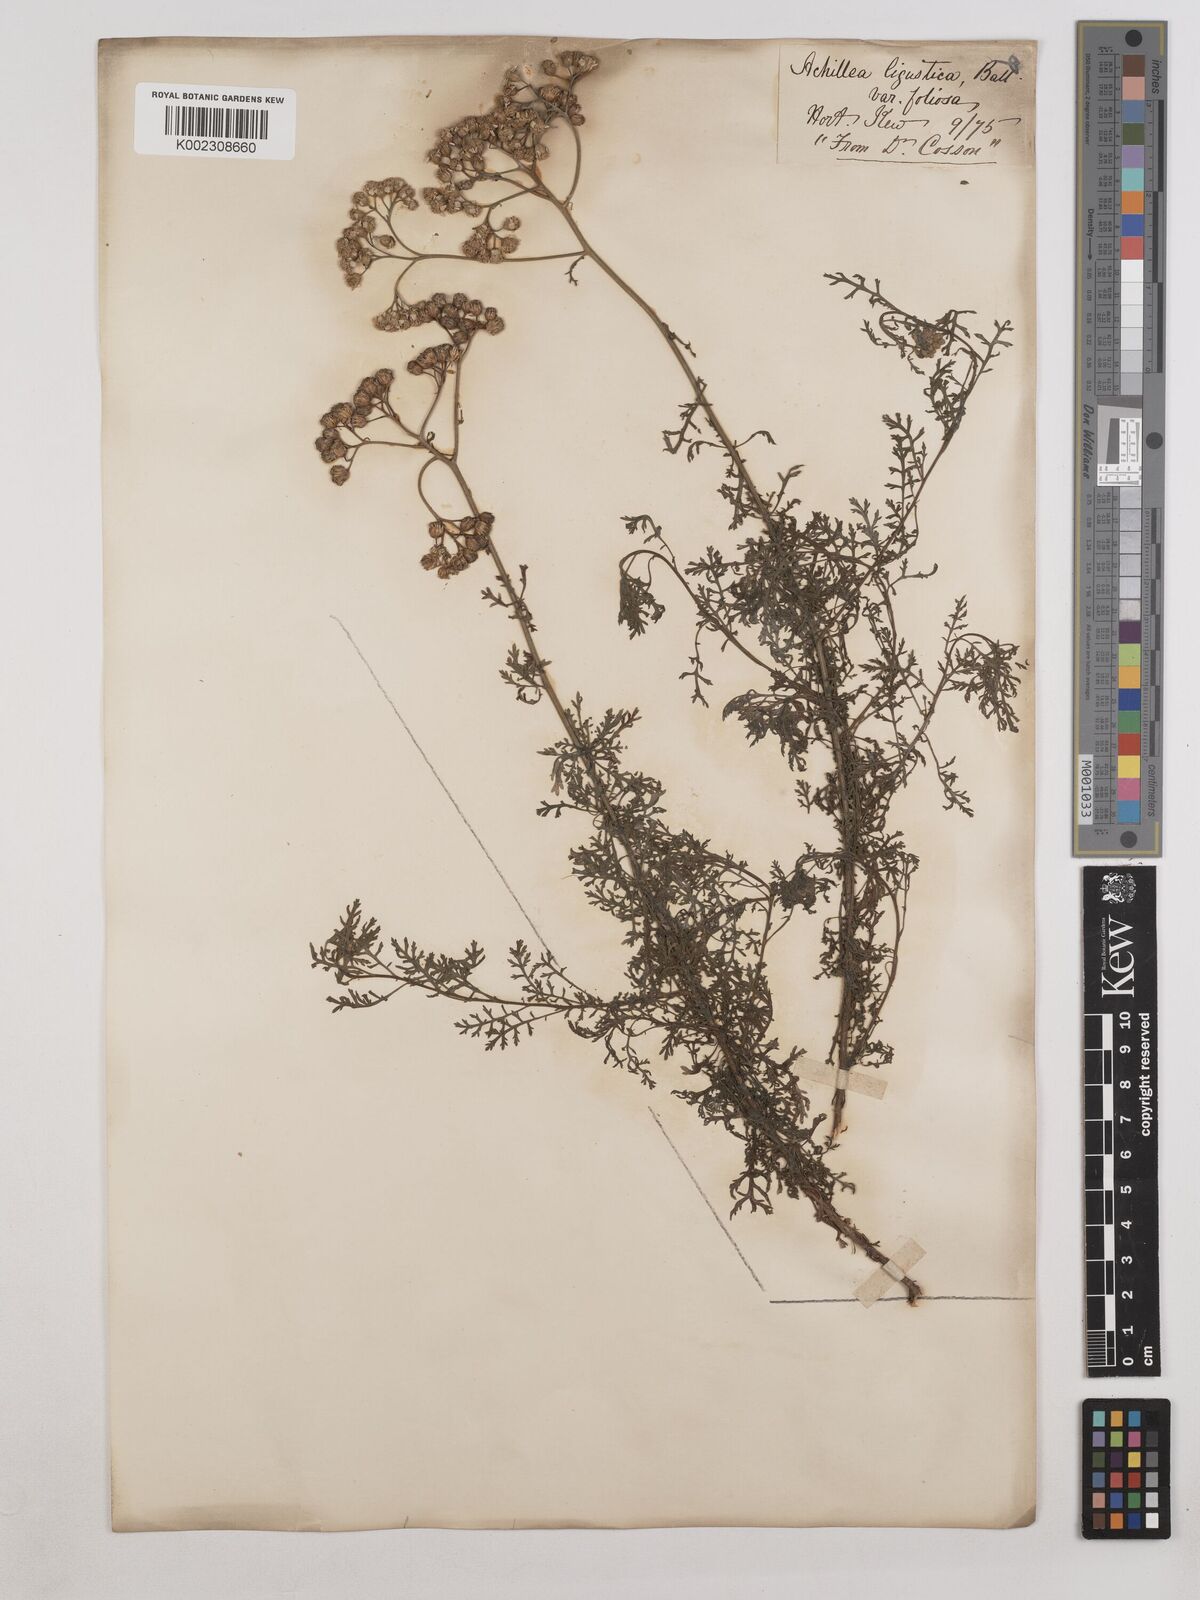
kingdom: Plantae
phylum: Tracheophyta
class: Magnoliopsida
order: Asterales
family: Asteraceae
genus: Achillea
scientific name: Achillea ligustica
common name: Southern yarrow
